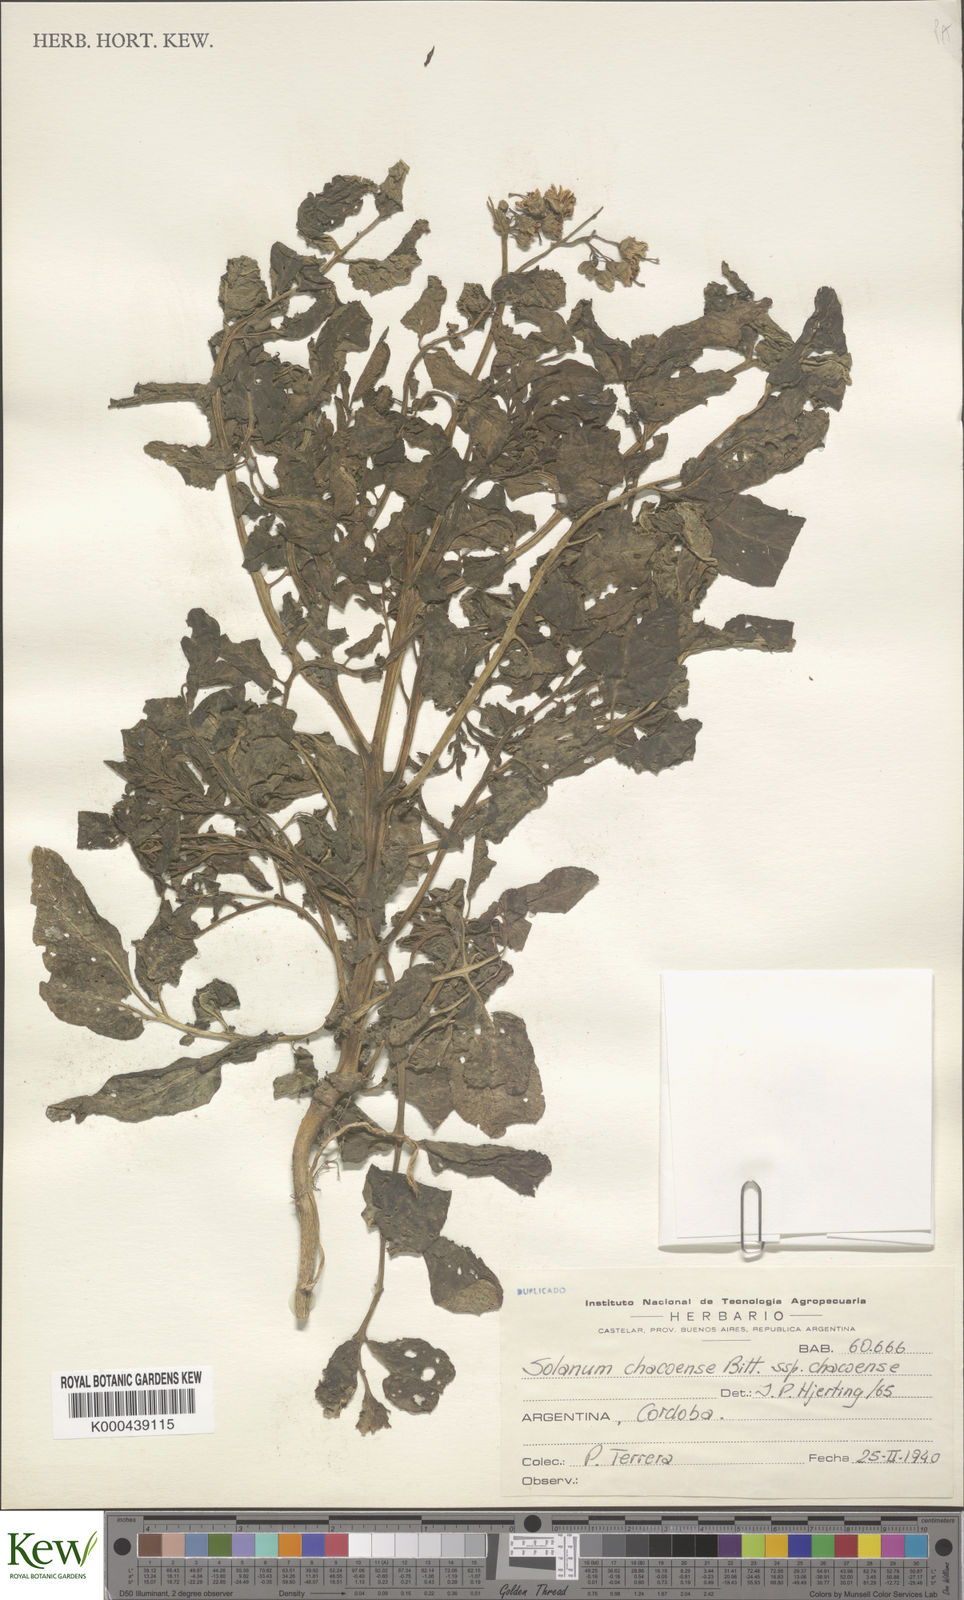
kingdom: Plantae
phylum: Tracheophyta
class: Magnoliopsida
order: Solanales
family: Solanaceae
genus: Solanum
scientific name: Solanum chacoense
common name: Chaco potato
